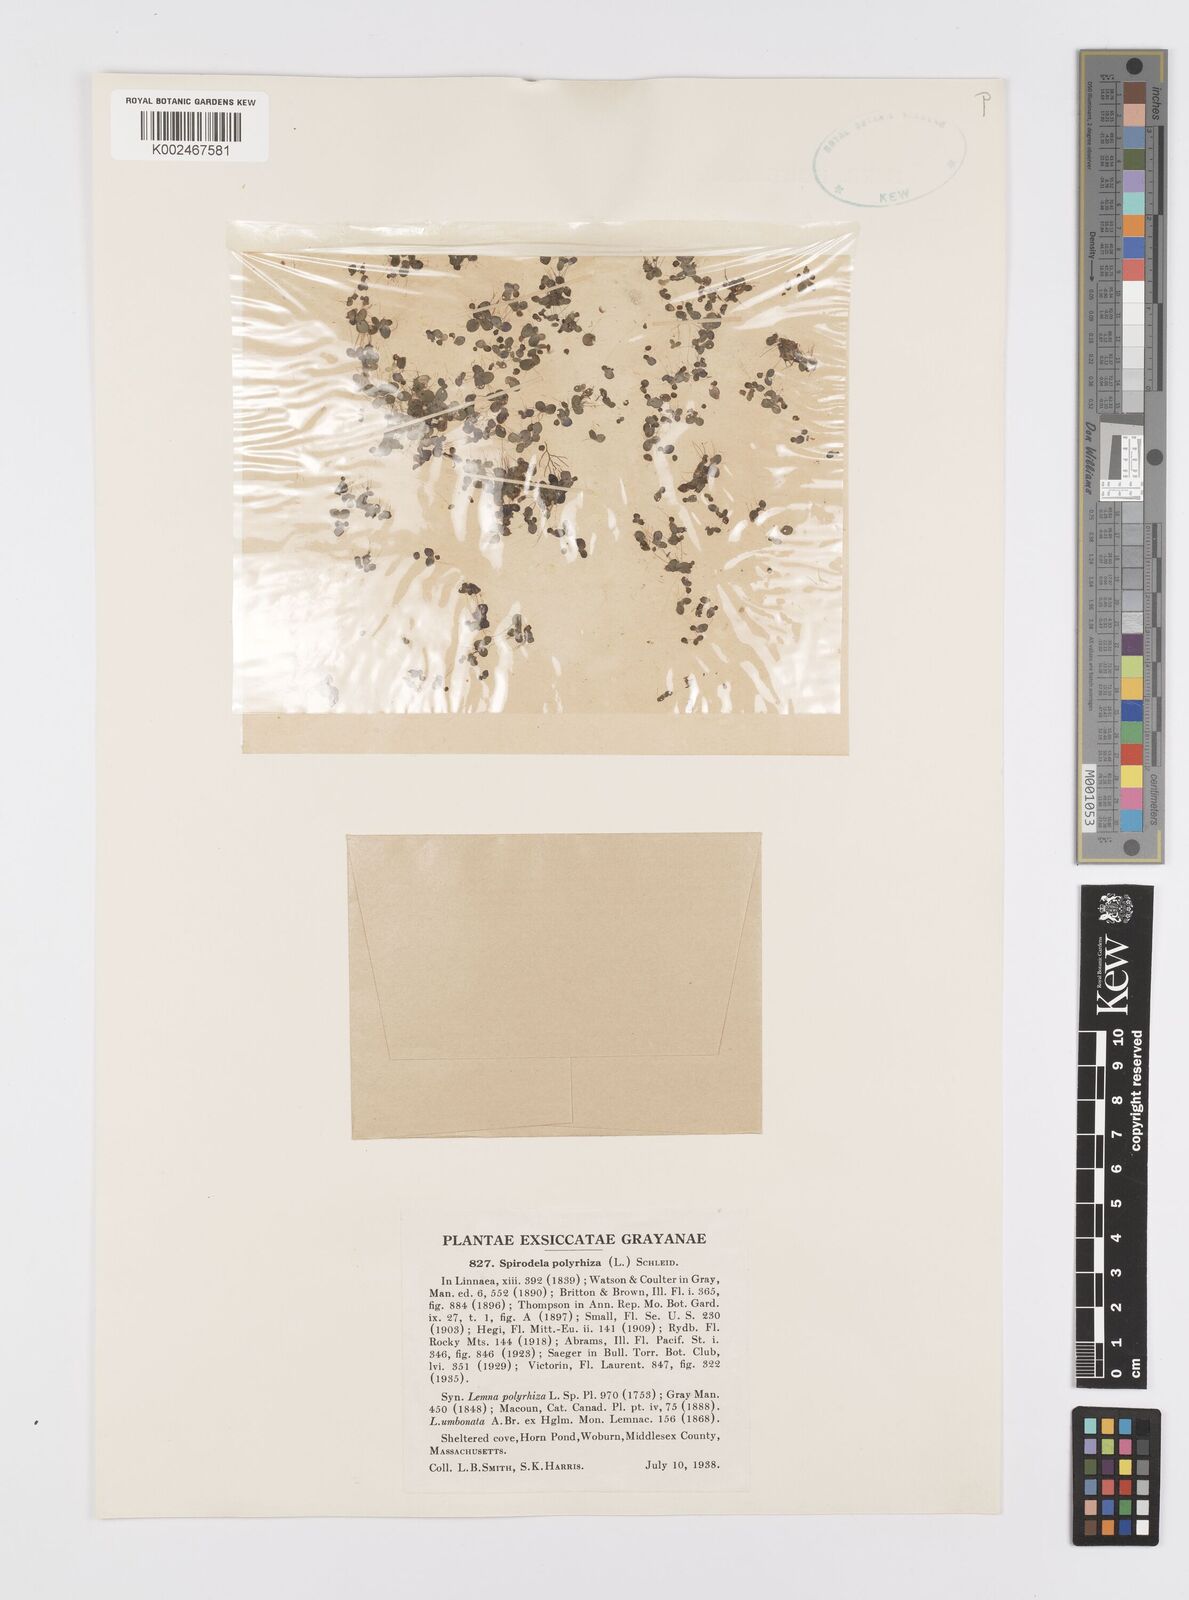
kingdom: Plantae
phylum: Tracheophyta
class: Liliopsida
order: Alismatales
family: Araceae
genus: Spirodela
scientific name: Spirodela polyrhiza
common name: Great duckweed
